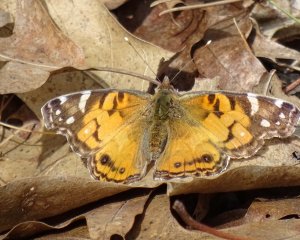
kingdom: Animalia
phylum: Arthropoda
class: Insecta
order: Lepidoptera
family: Nymphalidae
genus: Vanessa
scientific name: Vanessa virginiensis
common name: American Lady
